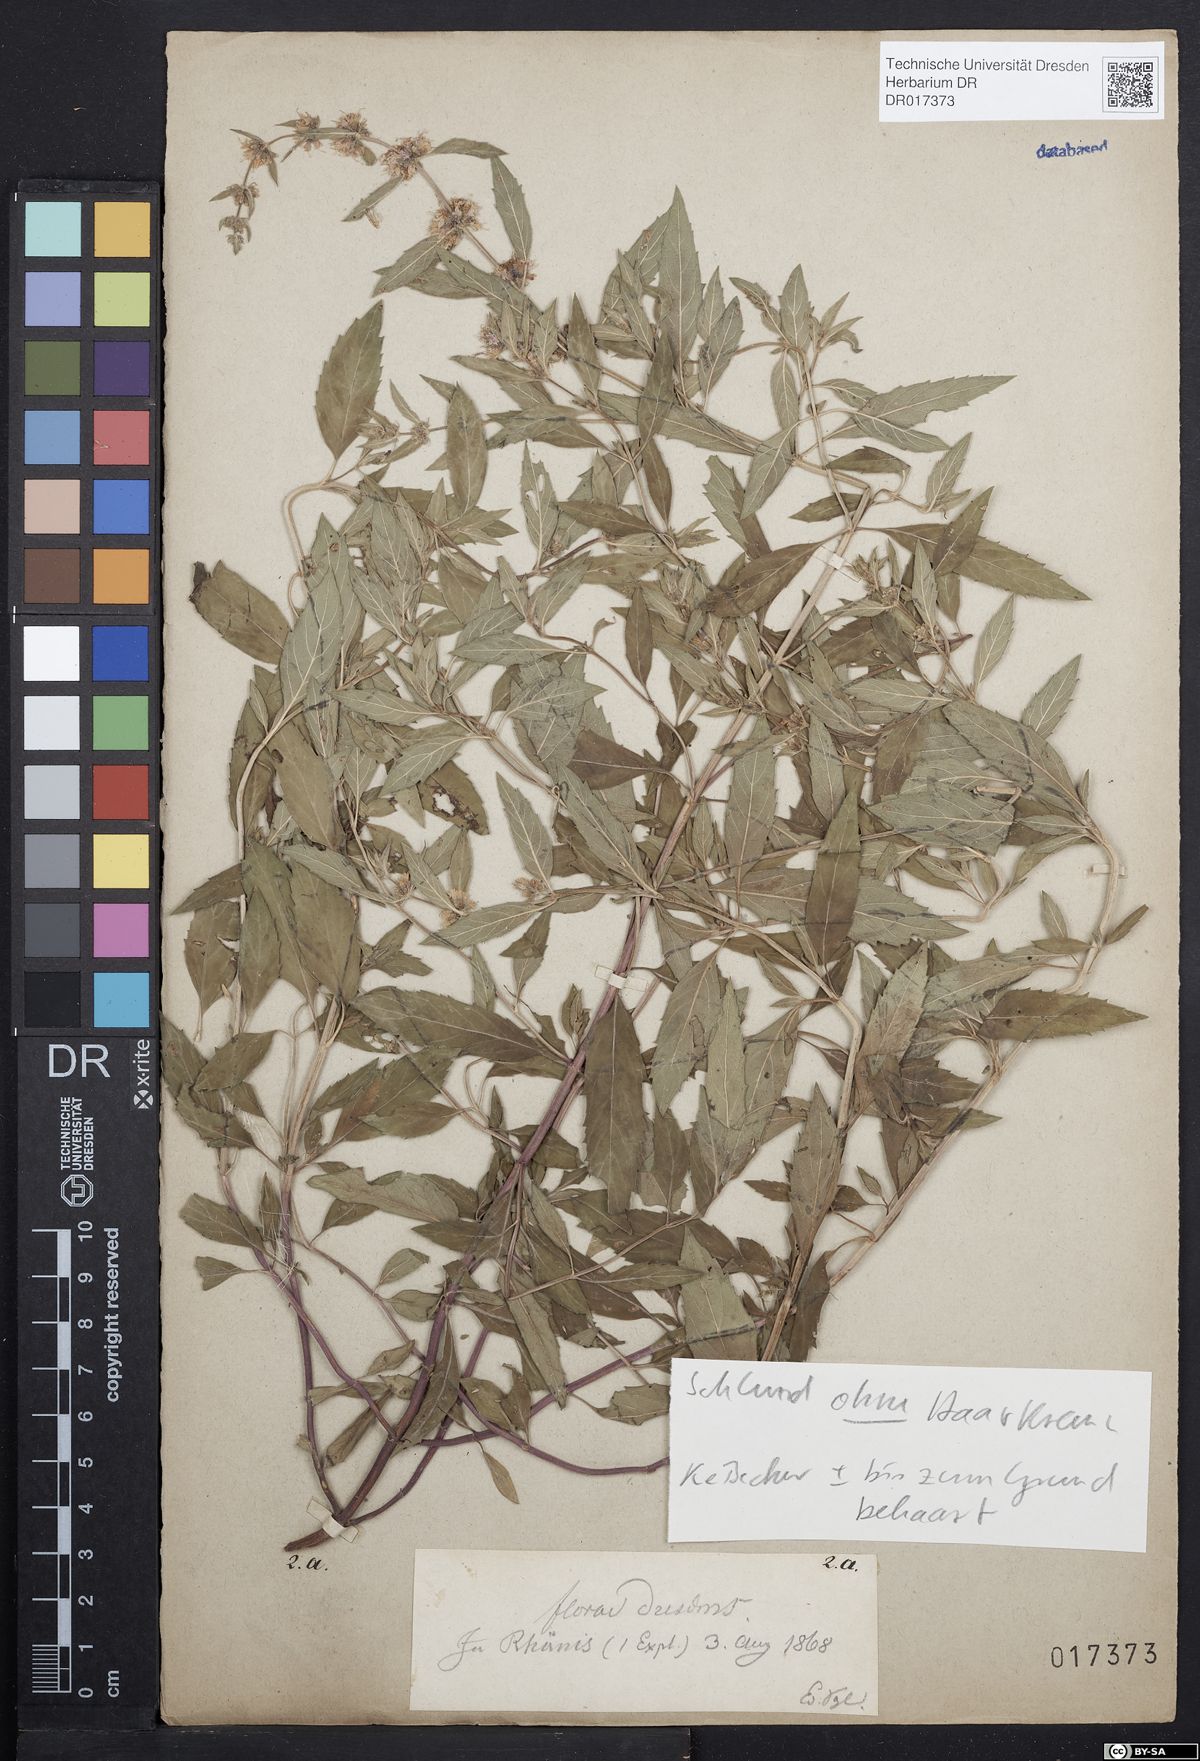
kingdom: Plantae
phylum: Tracheophyta
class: Magnoliopsida
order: Lamiales
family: Lamiaceae
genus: Mentha
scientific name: Mentha wirtgeniana
